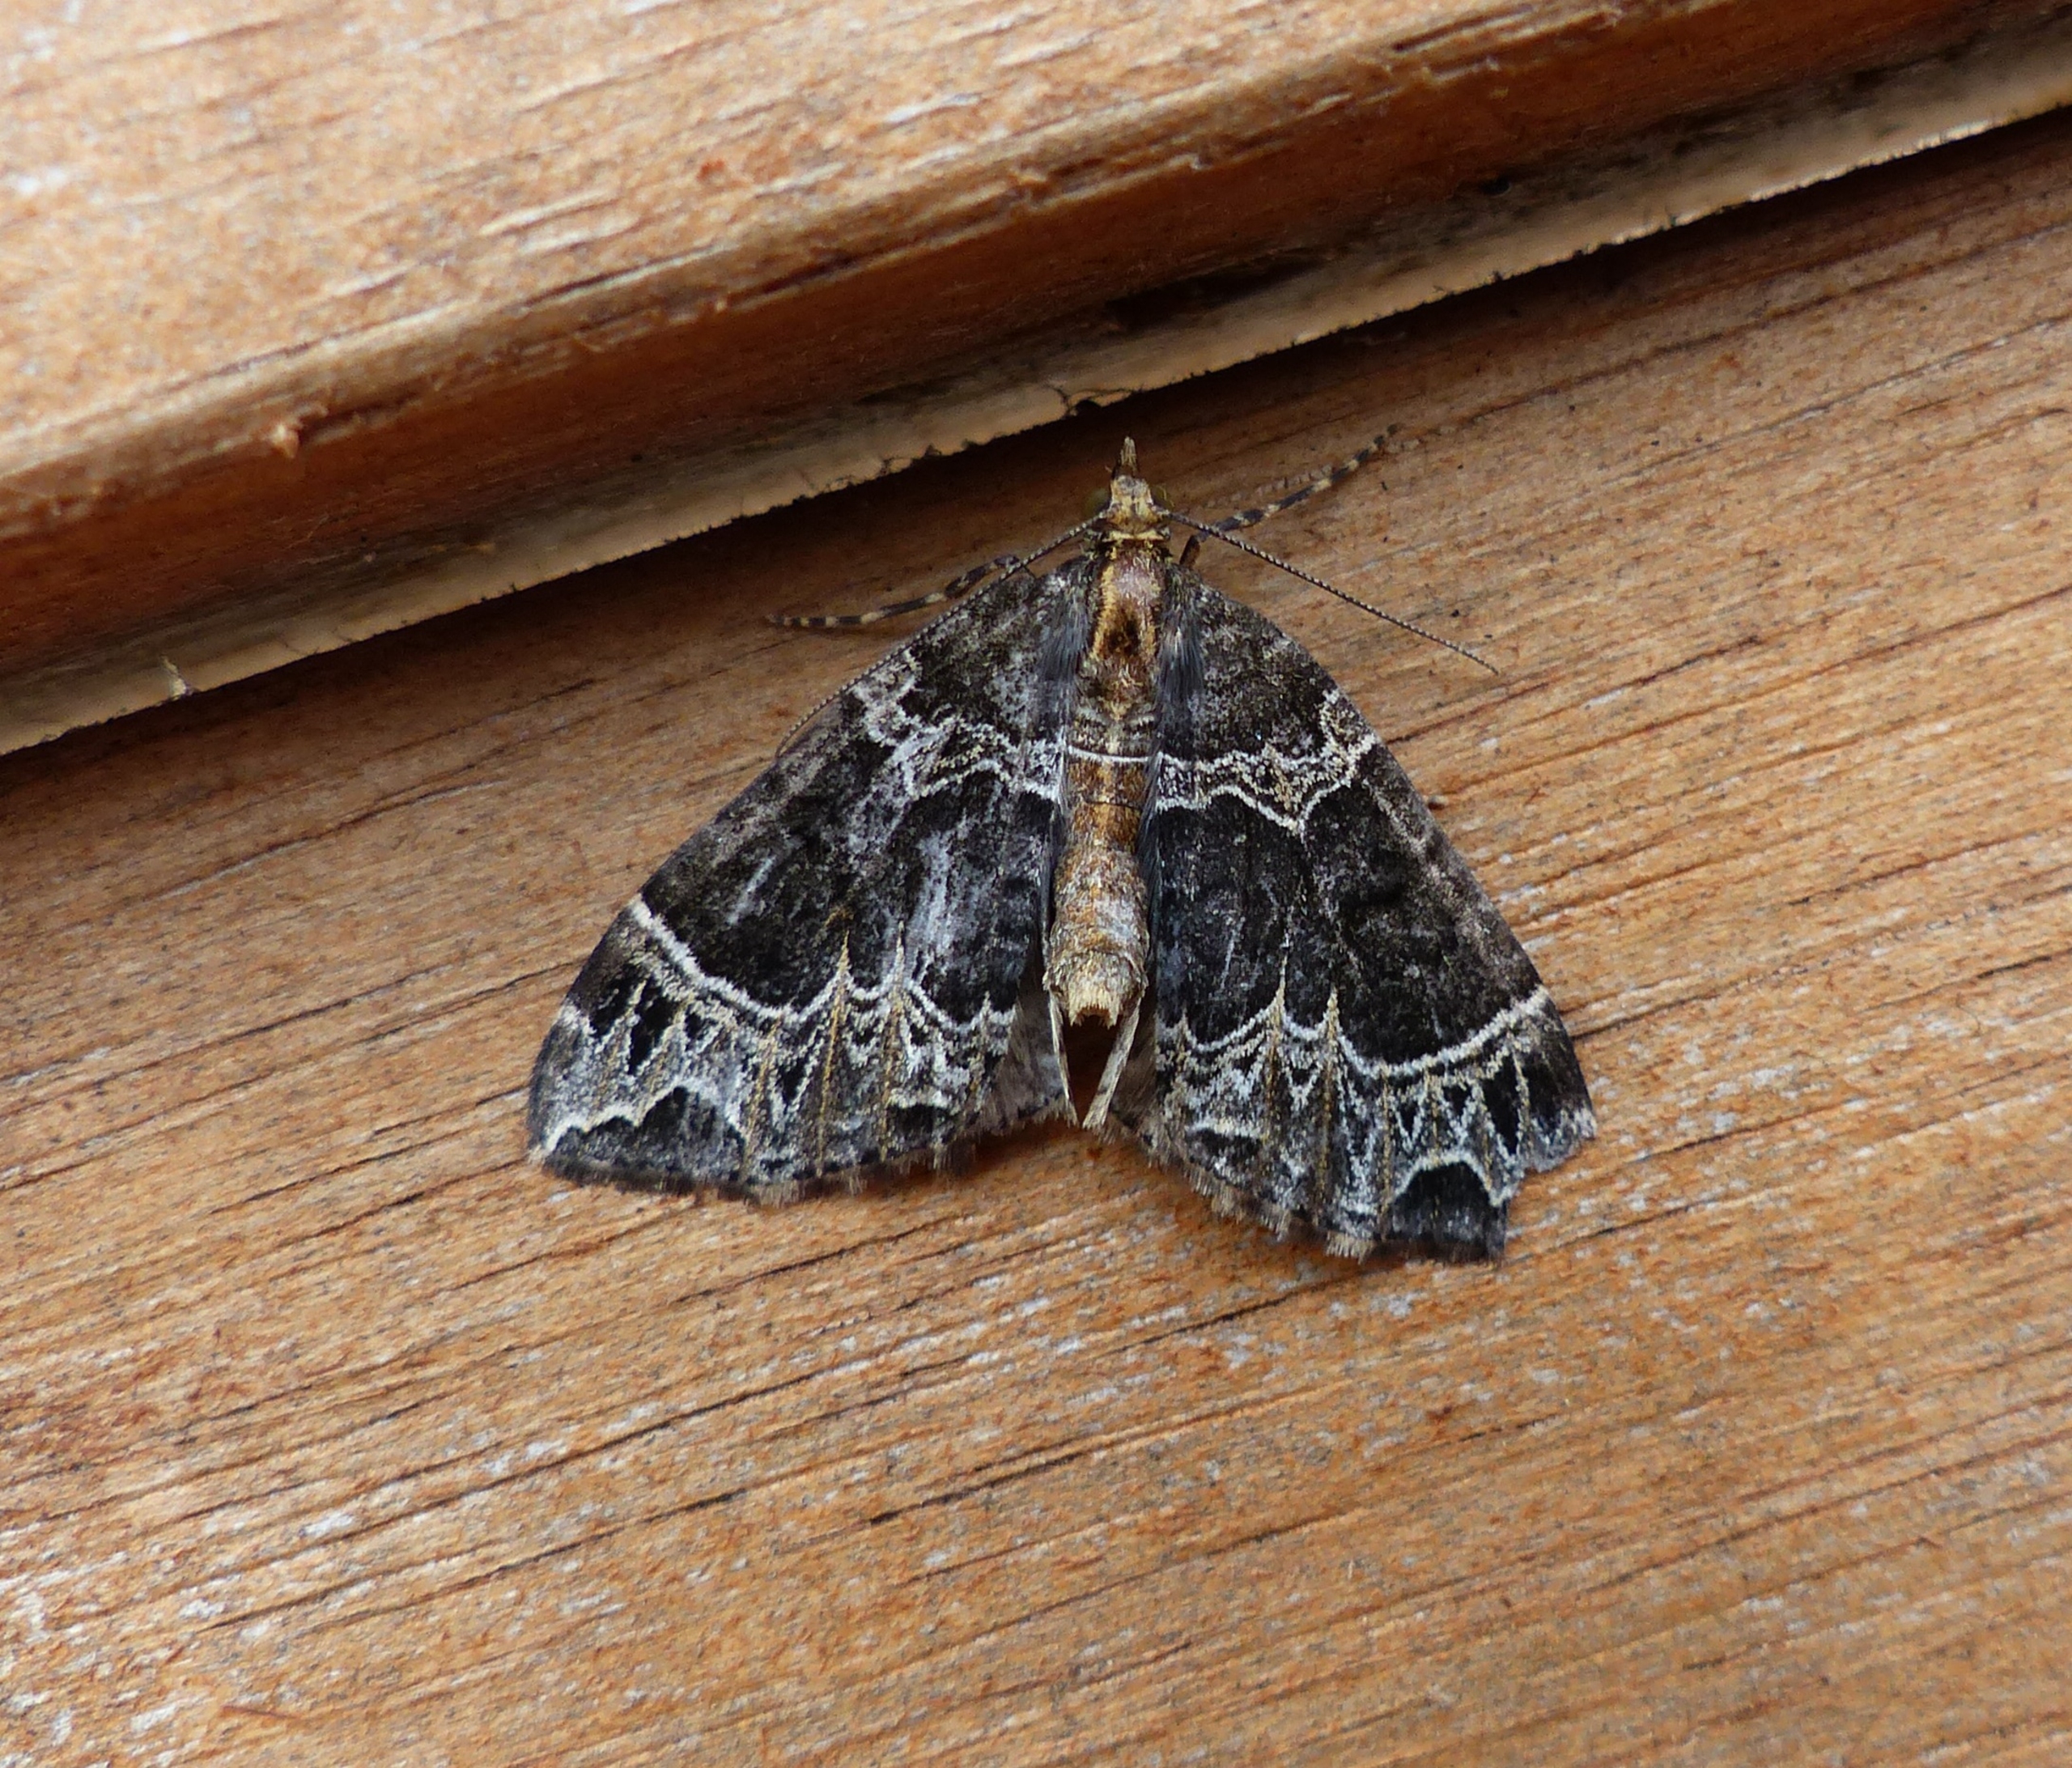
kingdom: Animalia
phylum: Arthropoda
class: Insecta
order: Lepidoptera
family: Geometridae
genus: Ecliptopera
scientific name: Ecliptopera silaceata
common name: Dueurt-bladmåler
